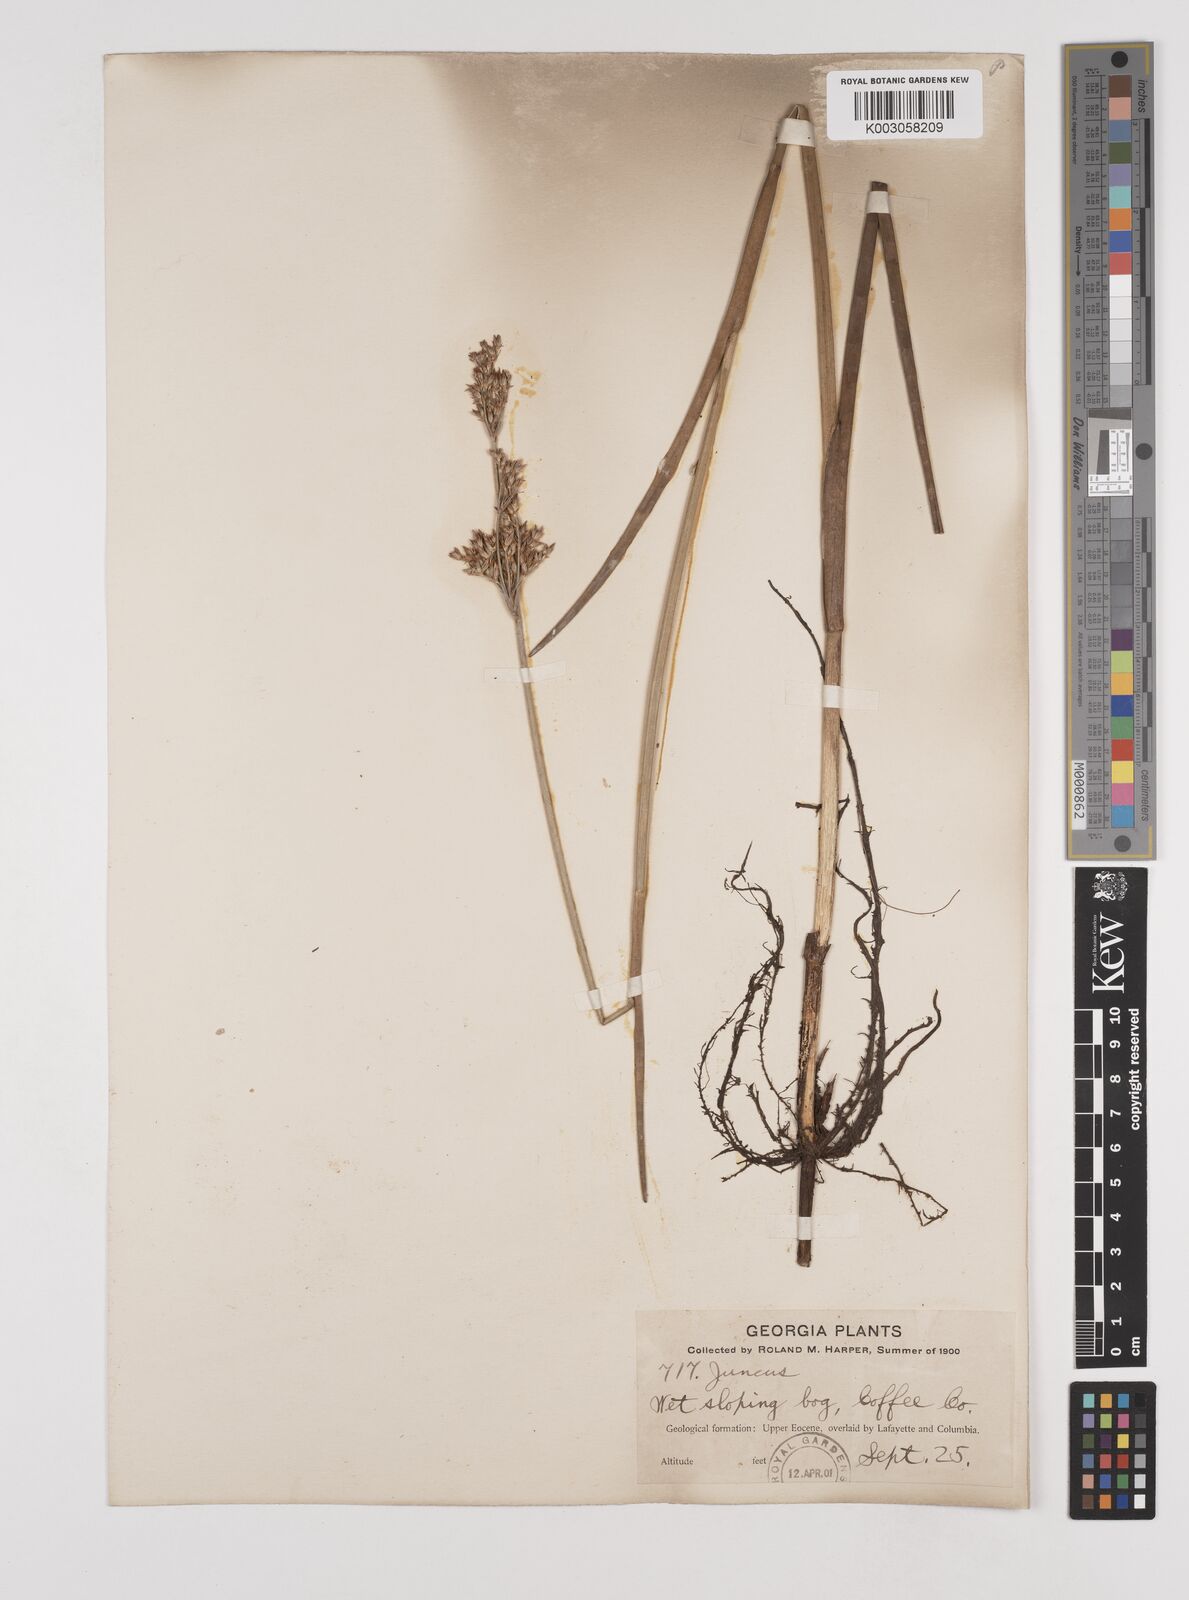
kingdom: Plantae
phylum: Tracheophyta
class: Liliopsida
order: Poales
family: Juncaceae
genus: Juncus
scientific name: Juncus
